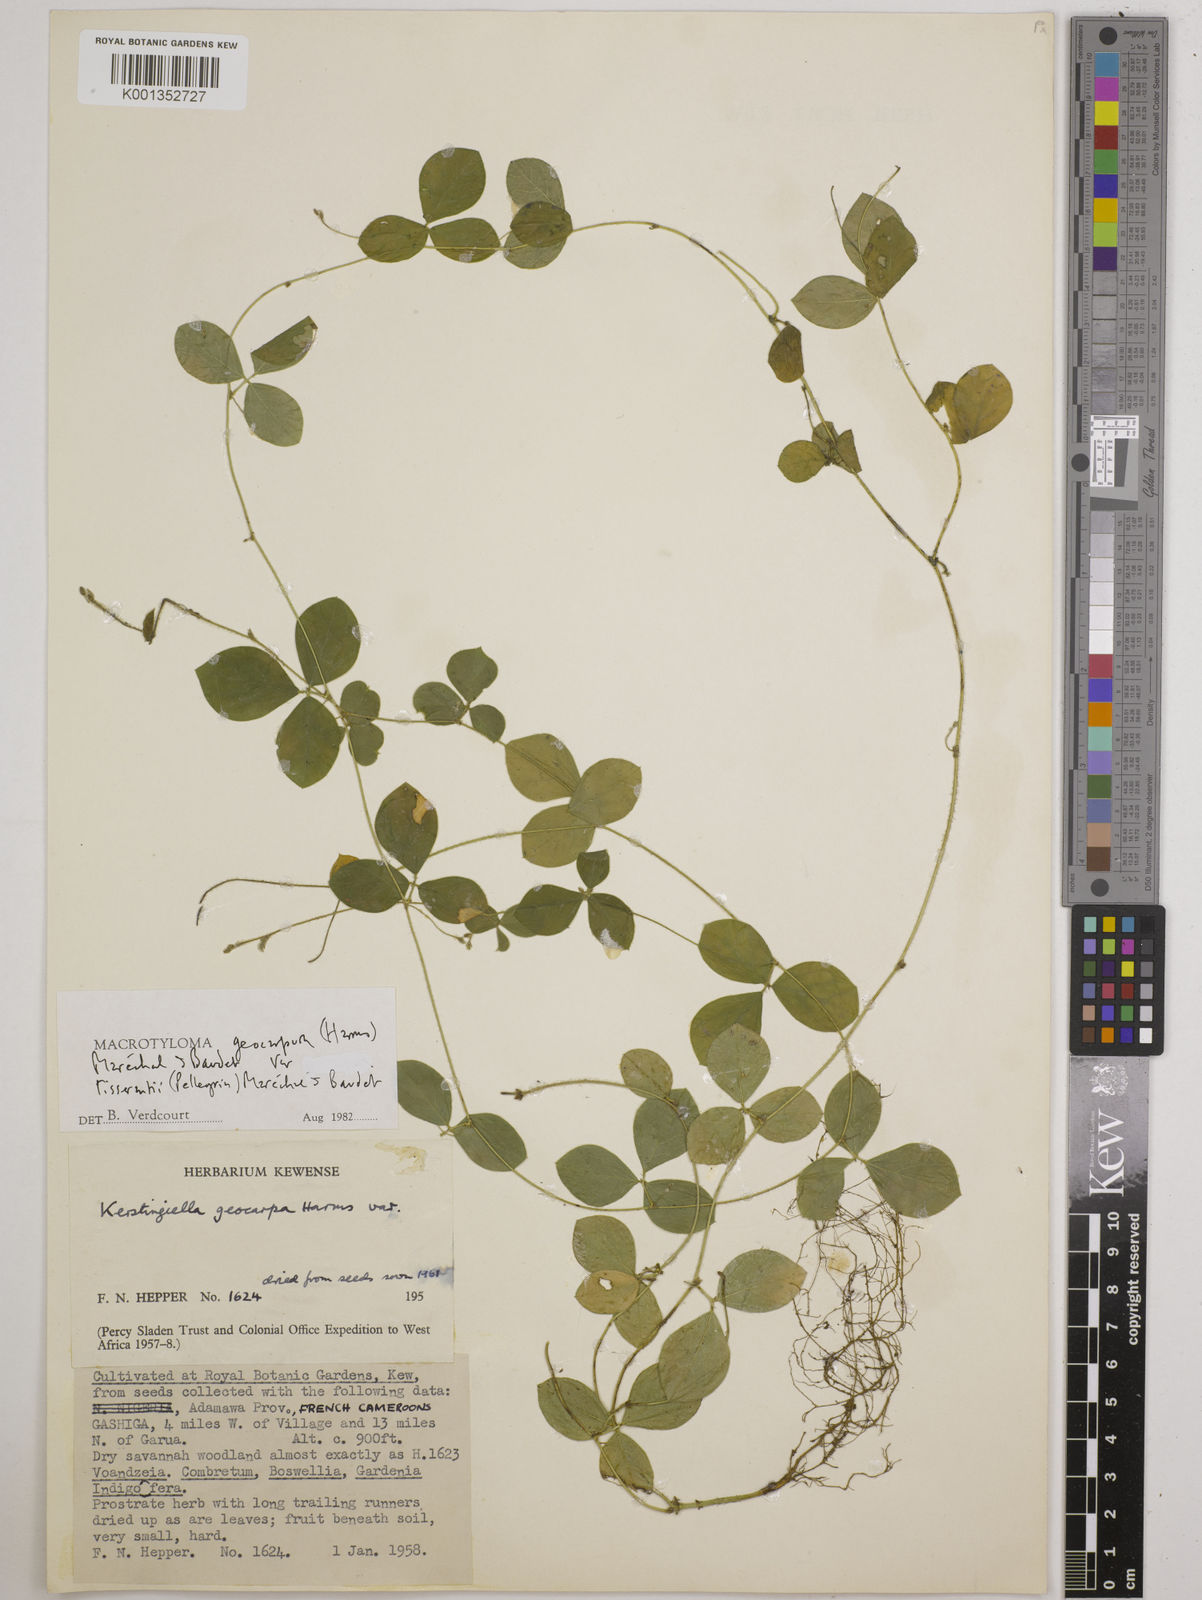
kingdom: Plantae
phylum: Tracheophyta
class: Magnoliopsida
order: Fabales
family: Fabaceae
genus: Macrotyloma
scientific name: Macrotyloma geocarpum
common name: Ground-bean
